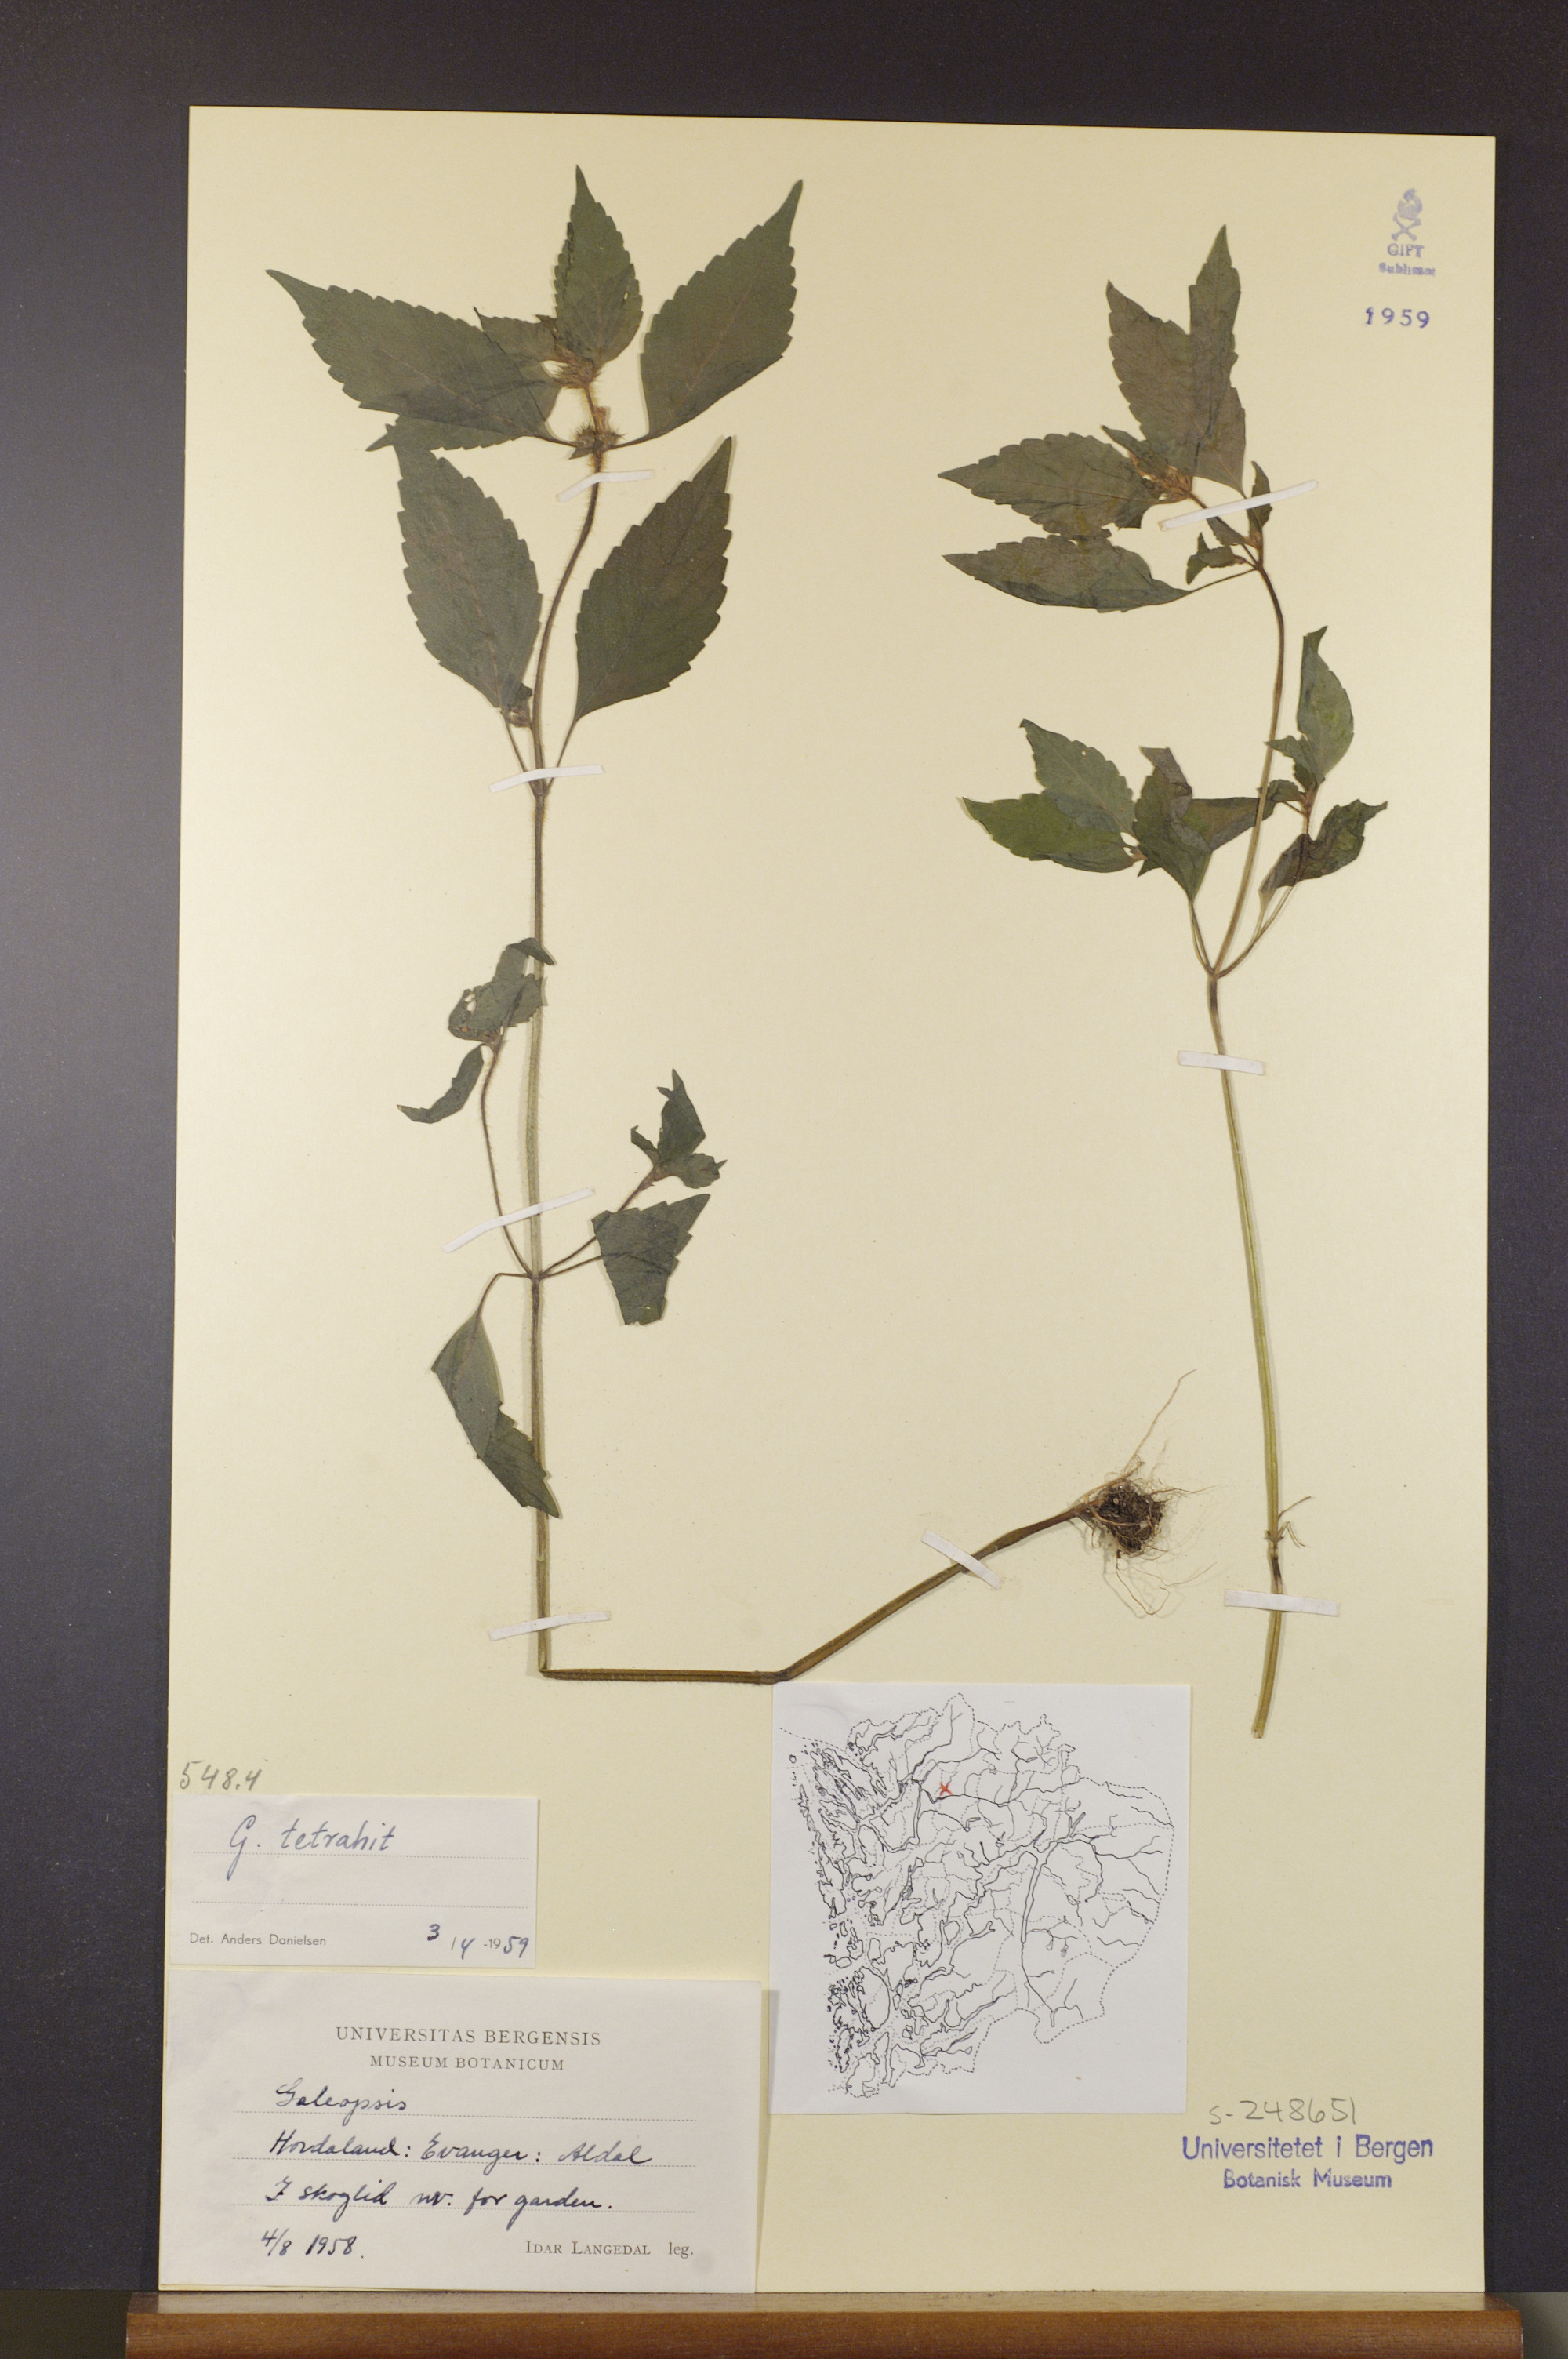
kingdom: Plantae
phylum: Tracheophyta
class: Magnoliopsida
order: Lamiales
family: Lamiaceae
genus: Galeopsis
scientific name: Galeopsis tetrahit
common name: Common hemp-nettle
